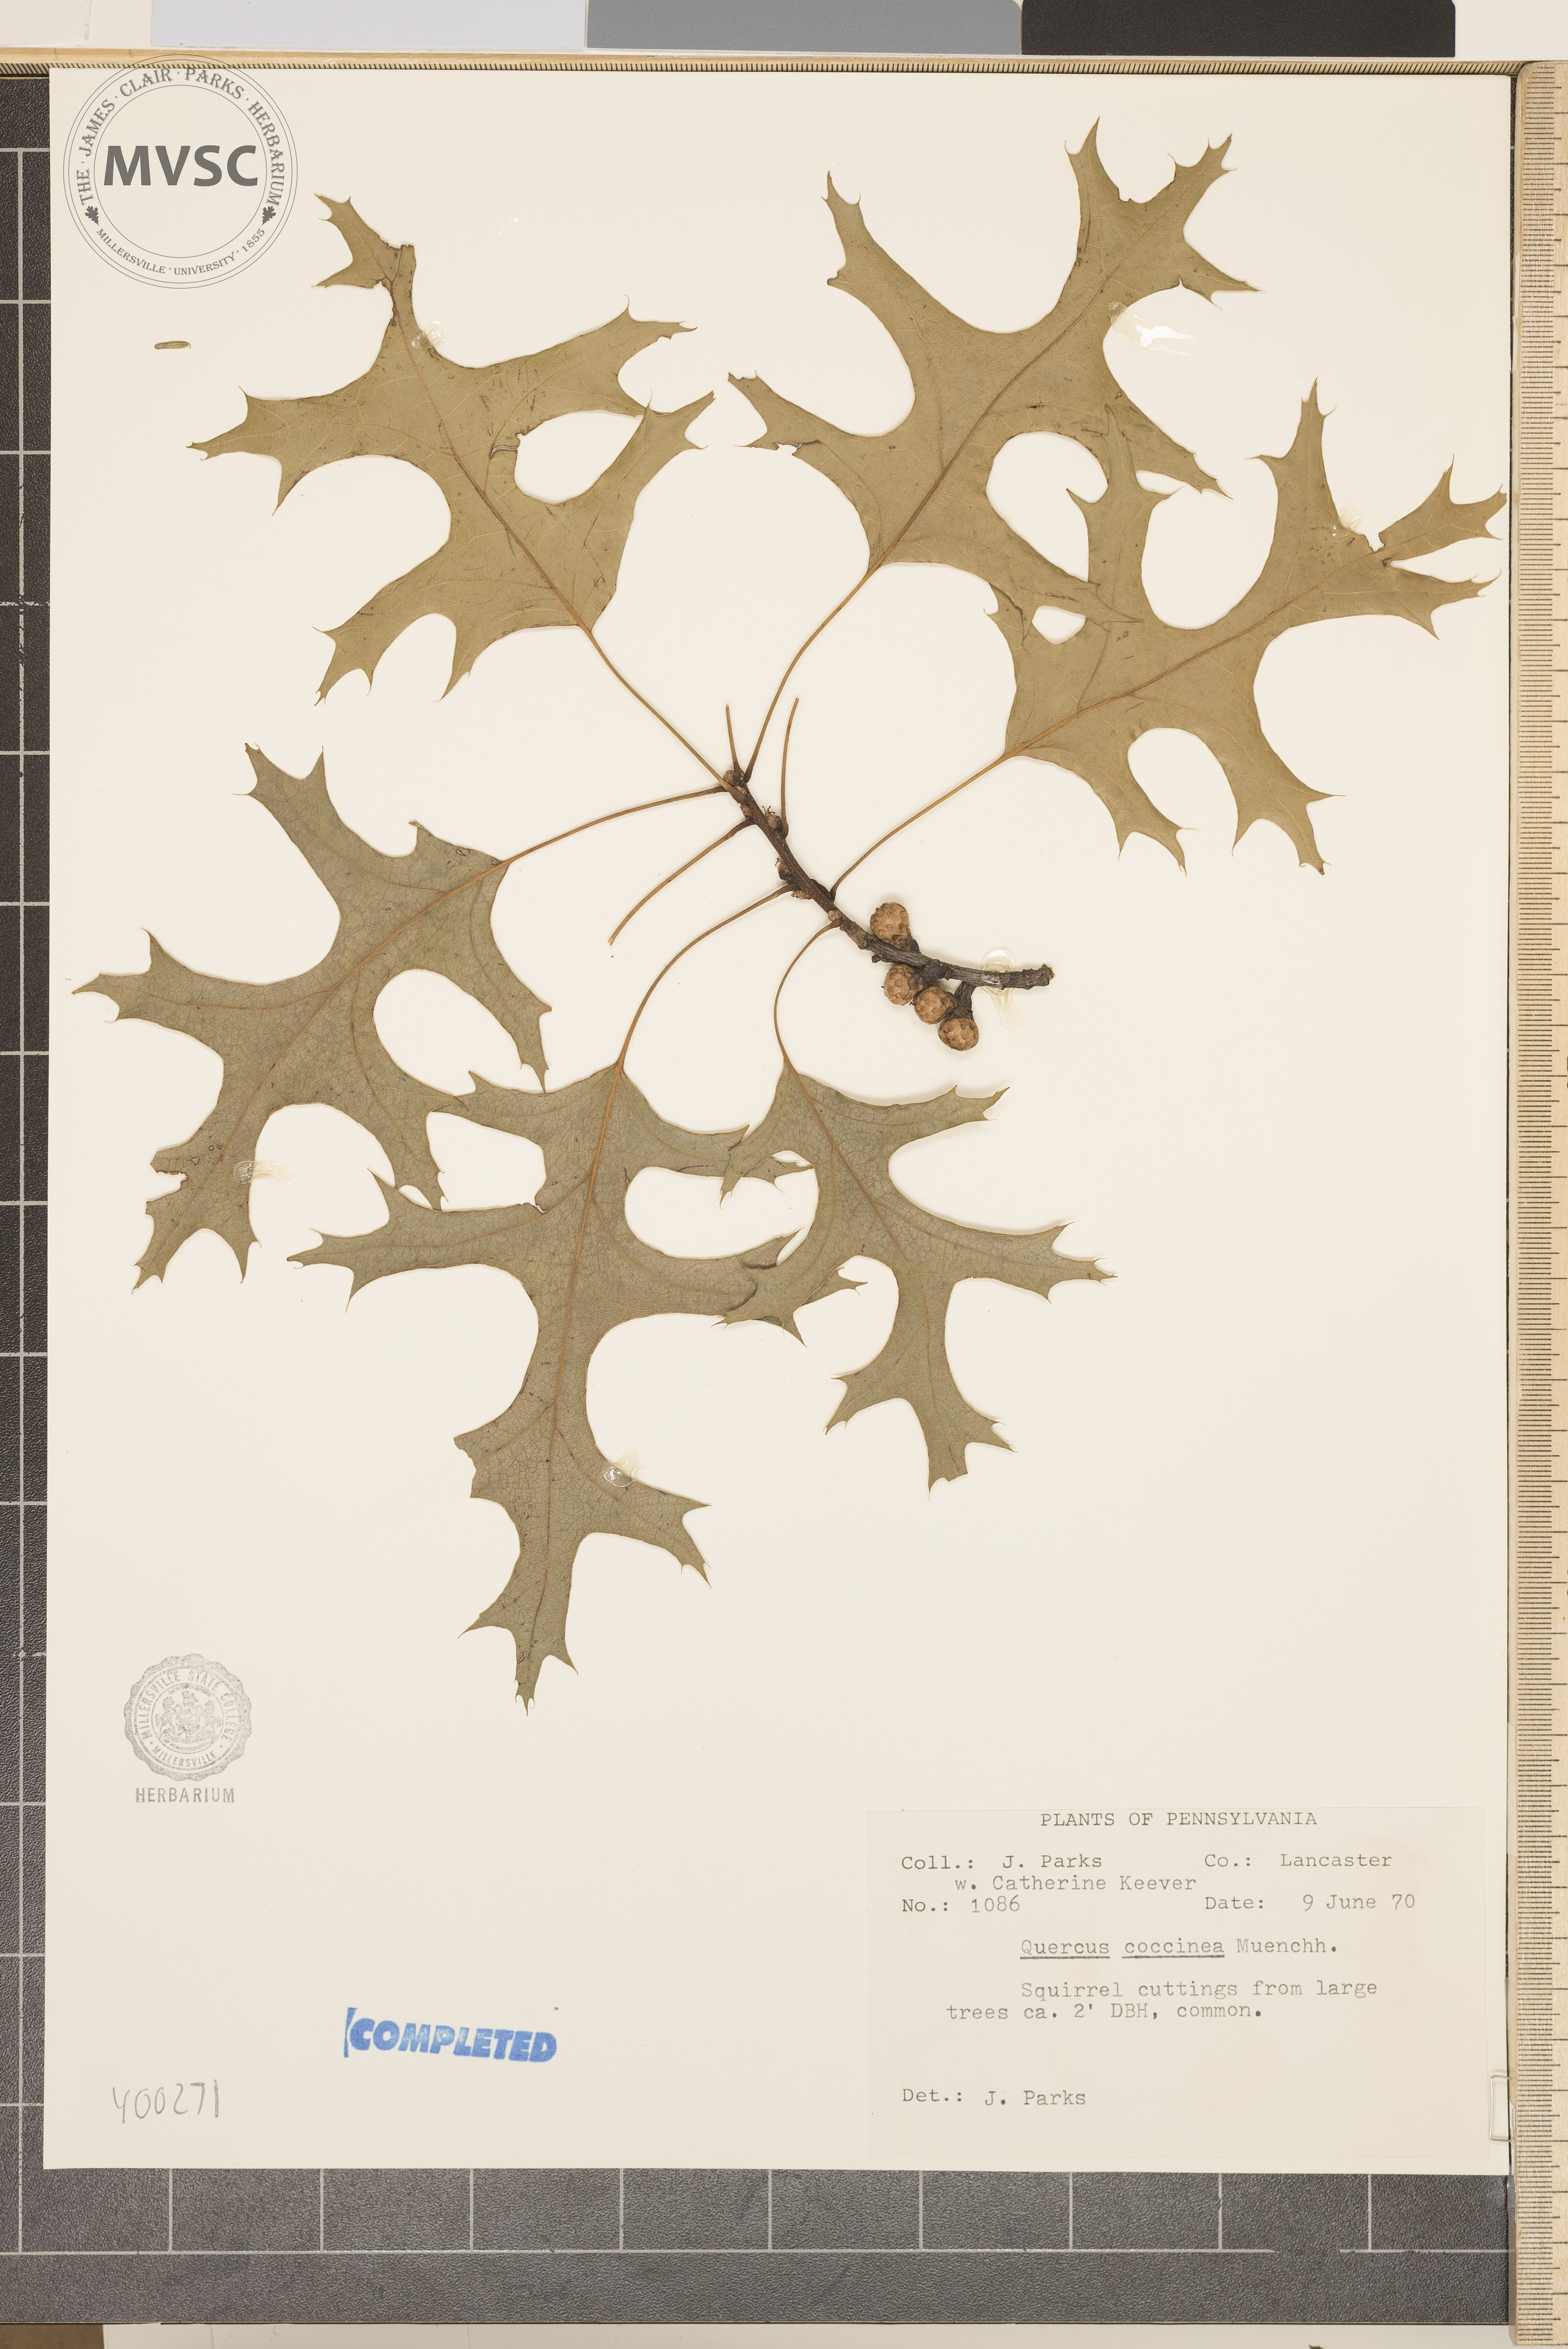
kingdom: Plantae
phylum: Tracheophyta
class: Magnoliopsida
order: Fagales
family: Fagaceae
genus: Quercus
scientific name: Quercus coccinea
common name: scarlet oak
